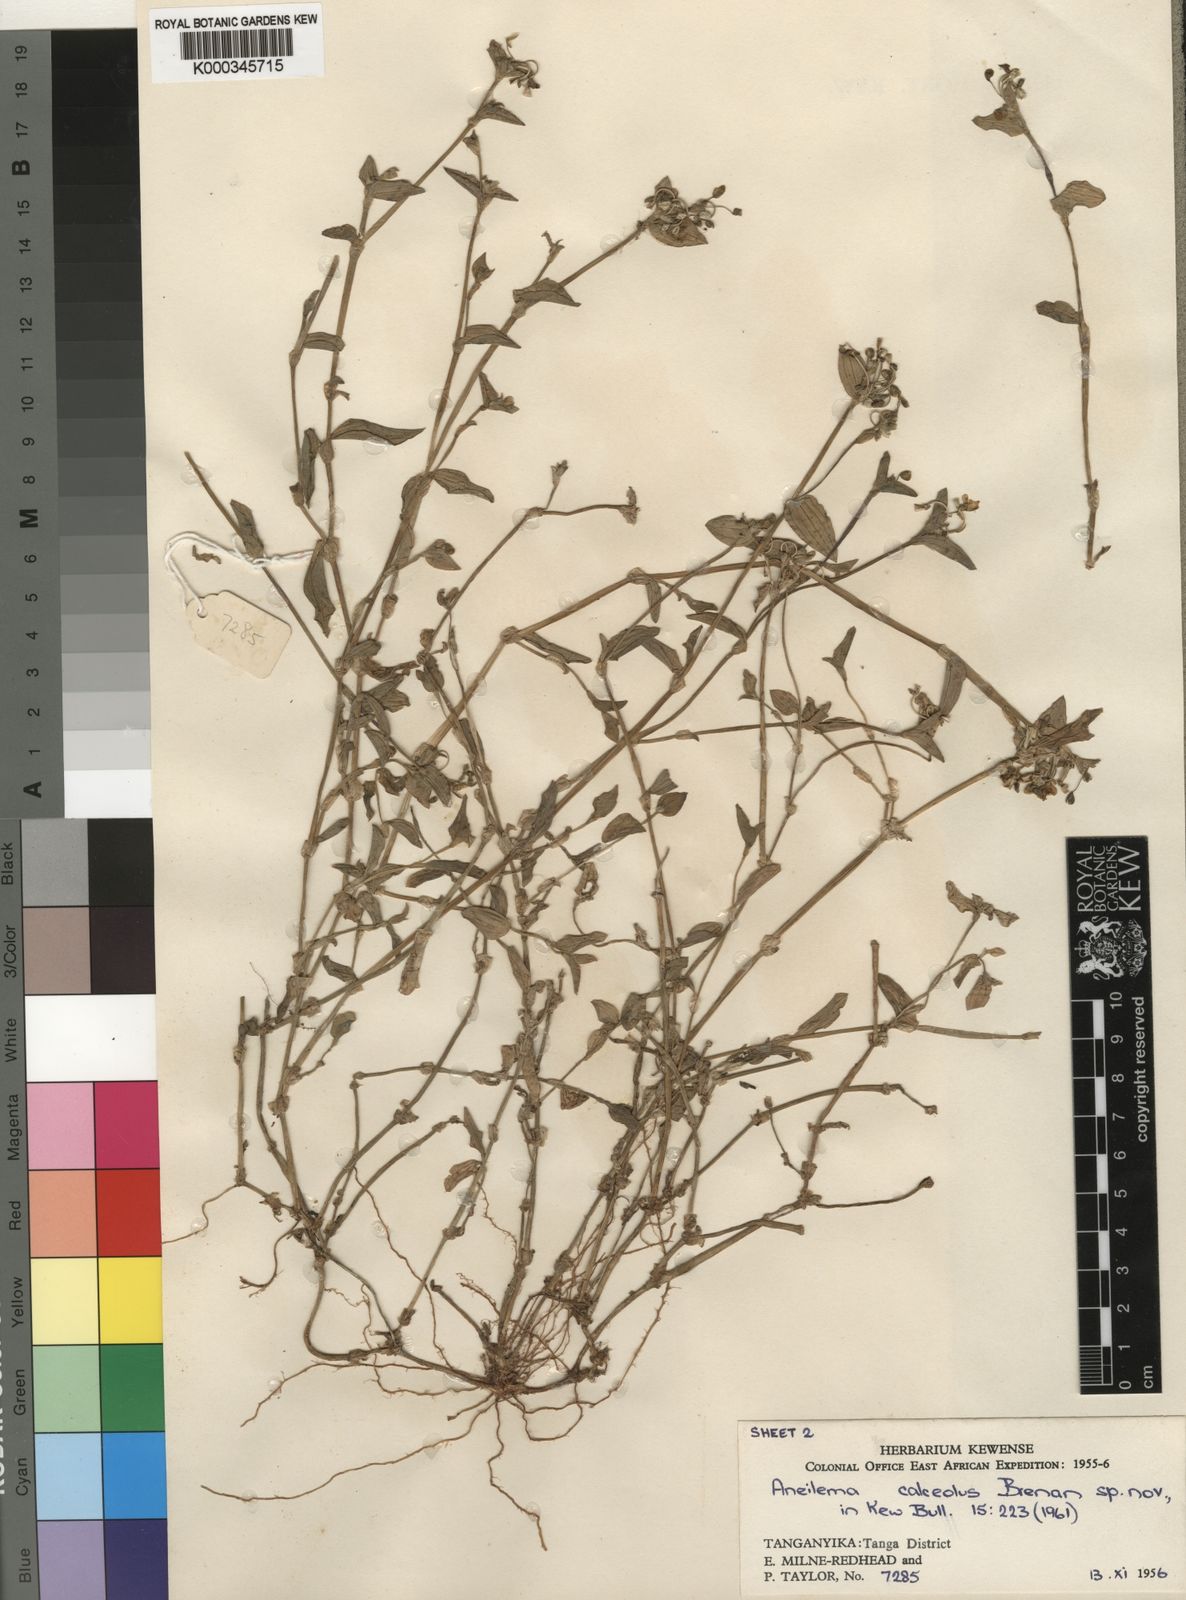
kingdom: Plantae
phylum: Tracheophyta
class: Liliopsida
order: Commelinales
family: Commelinaceae
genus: Aneilema
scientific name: Aneilema calceolus
